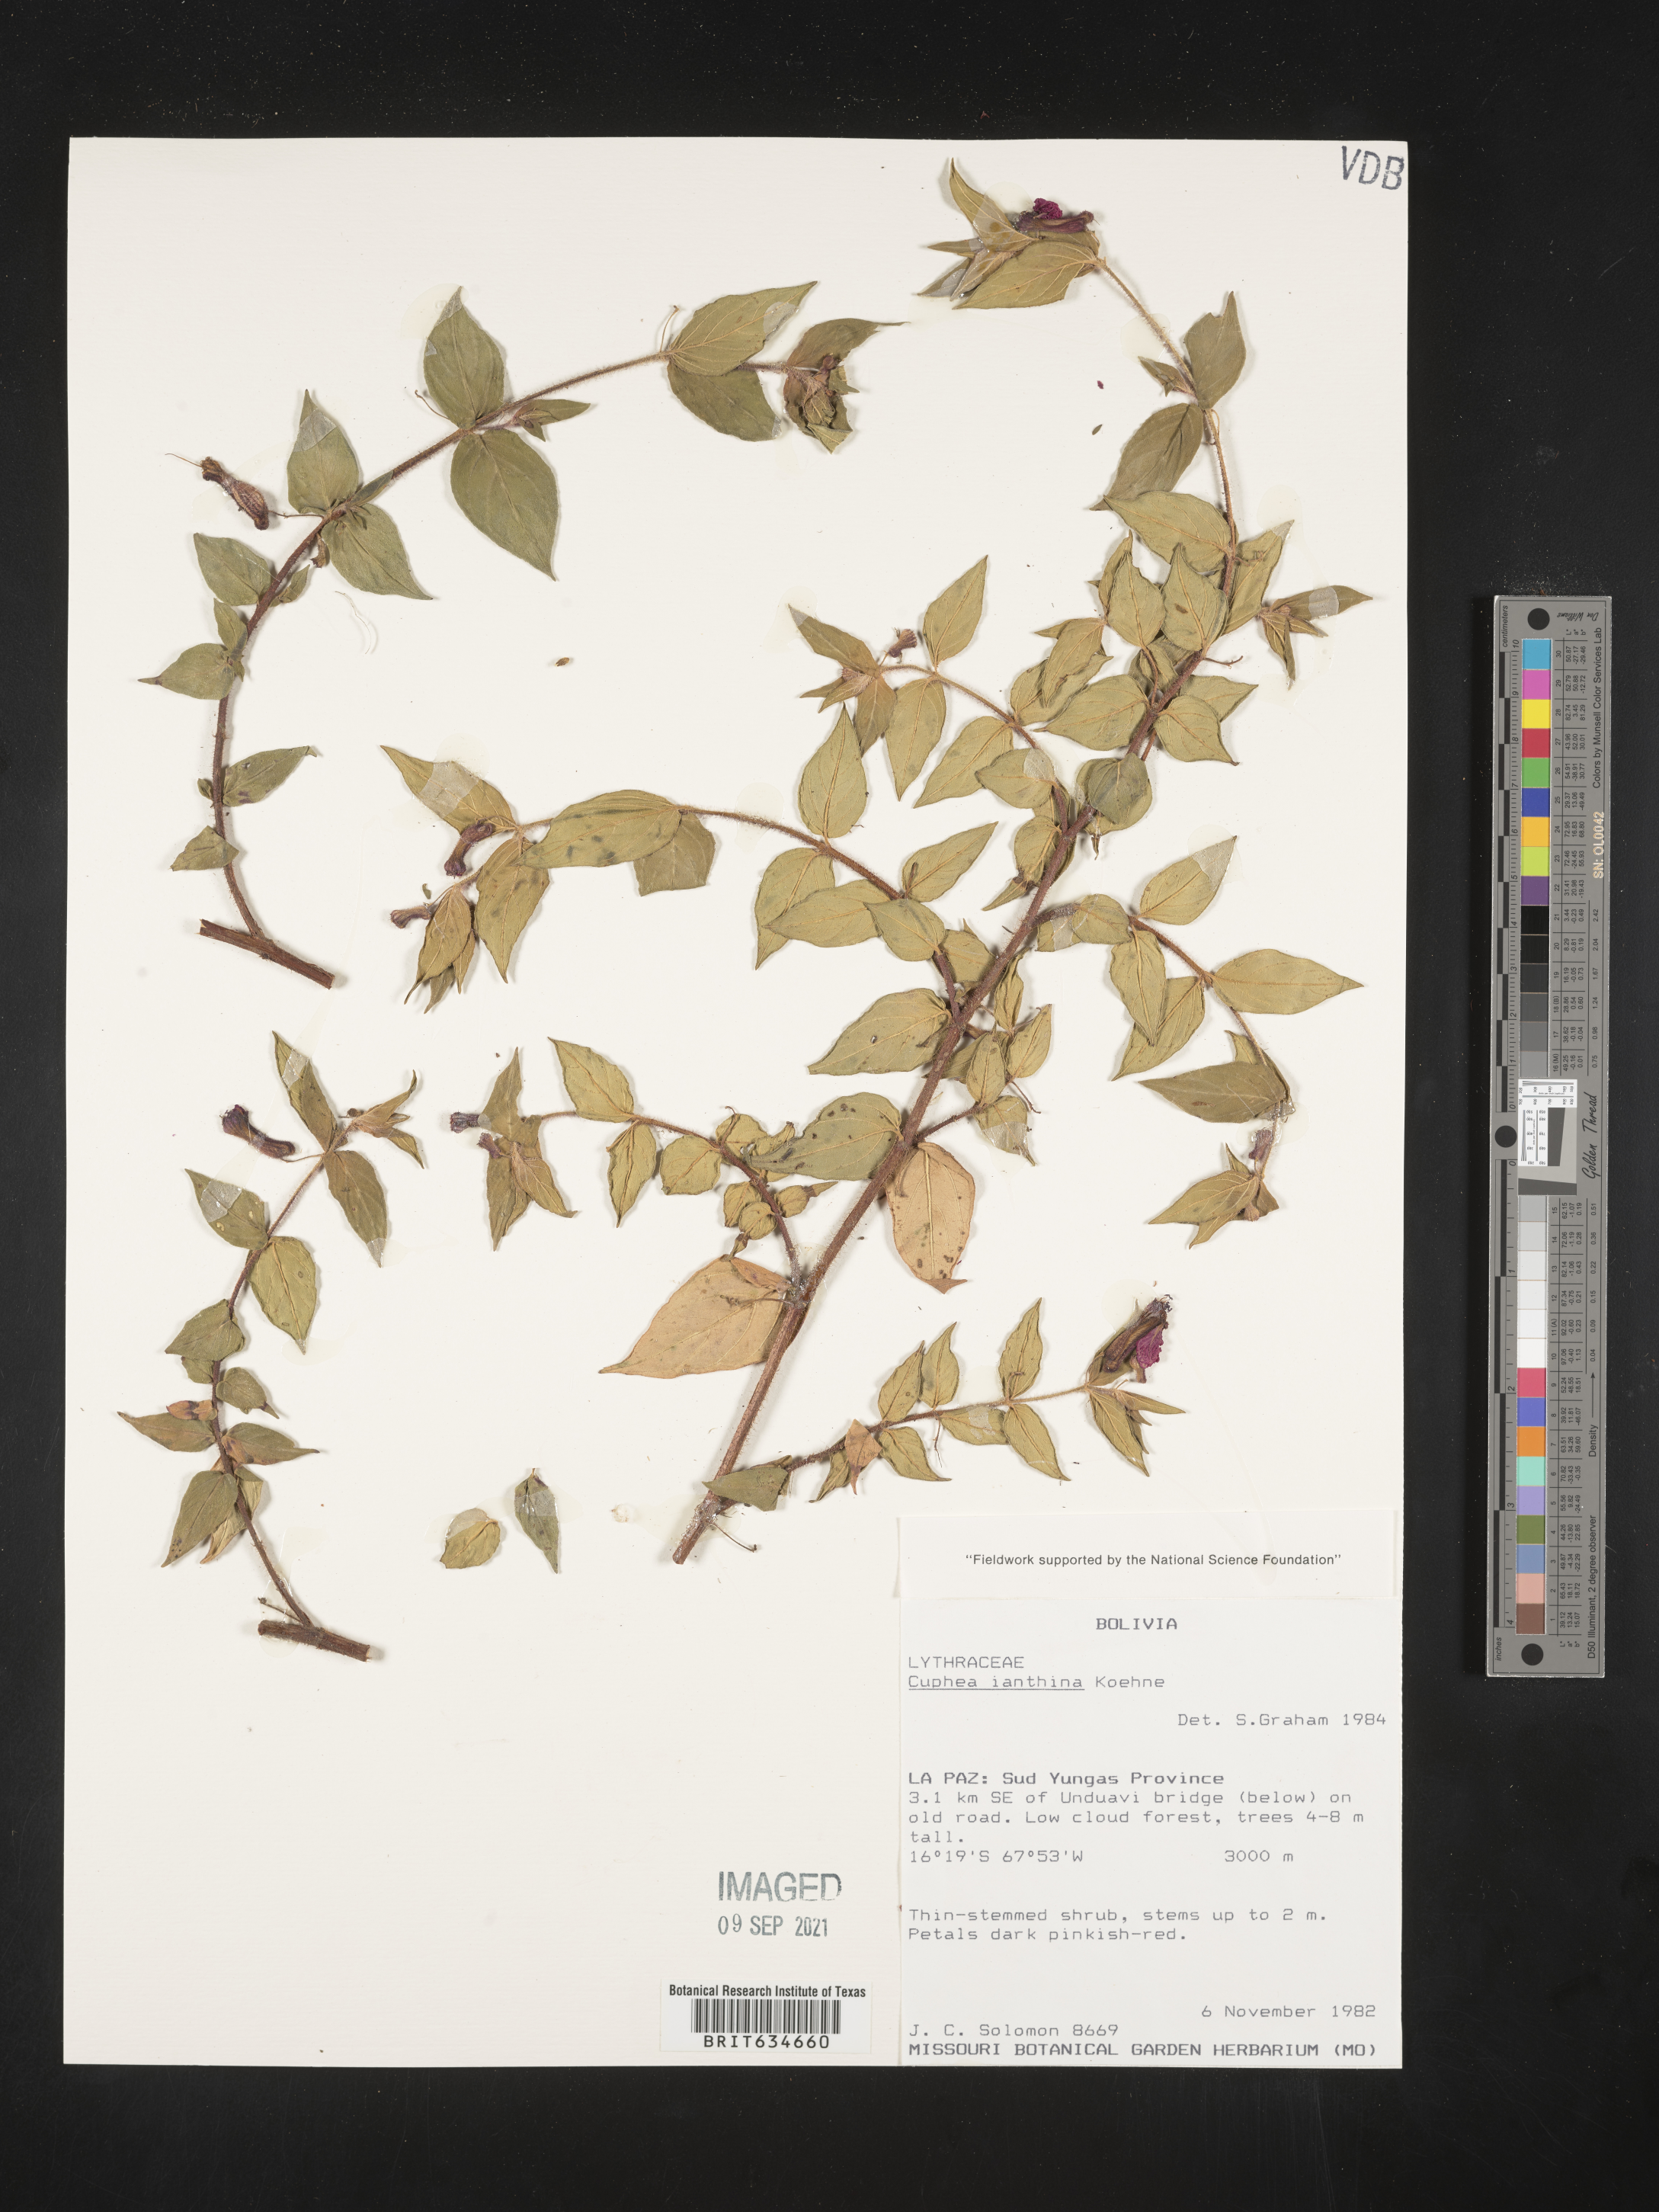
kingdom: Plantae
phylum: Tracheophyta
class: Magnoliopsida
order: Myrtales
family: Lythraceae
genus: Cuphea
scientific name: Cuphea
